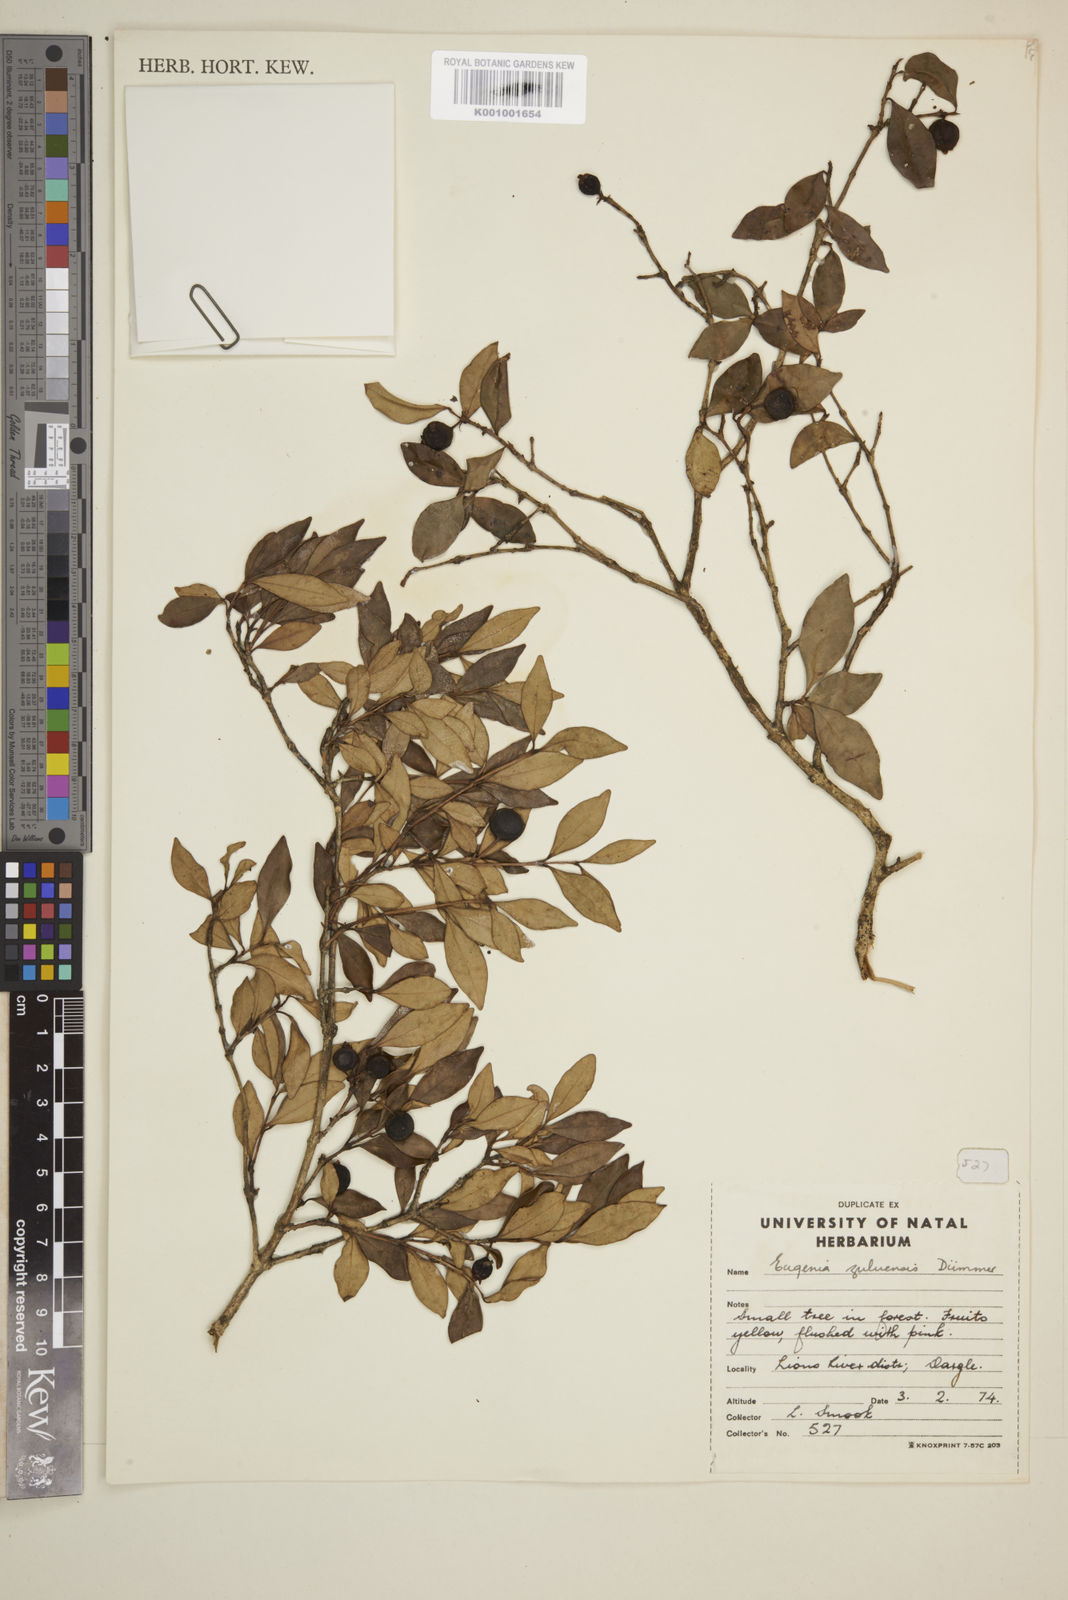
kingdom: Plantae
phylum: Tracheophyta
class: Magnoliopsida
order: Myrtales
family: Myrtaceae
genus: Eugenia
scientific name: Eugenia natalitia
